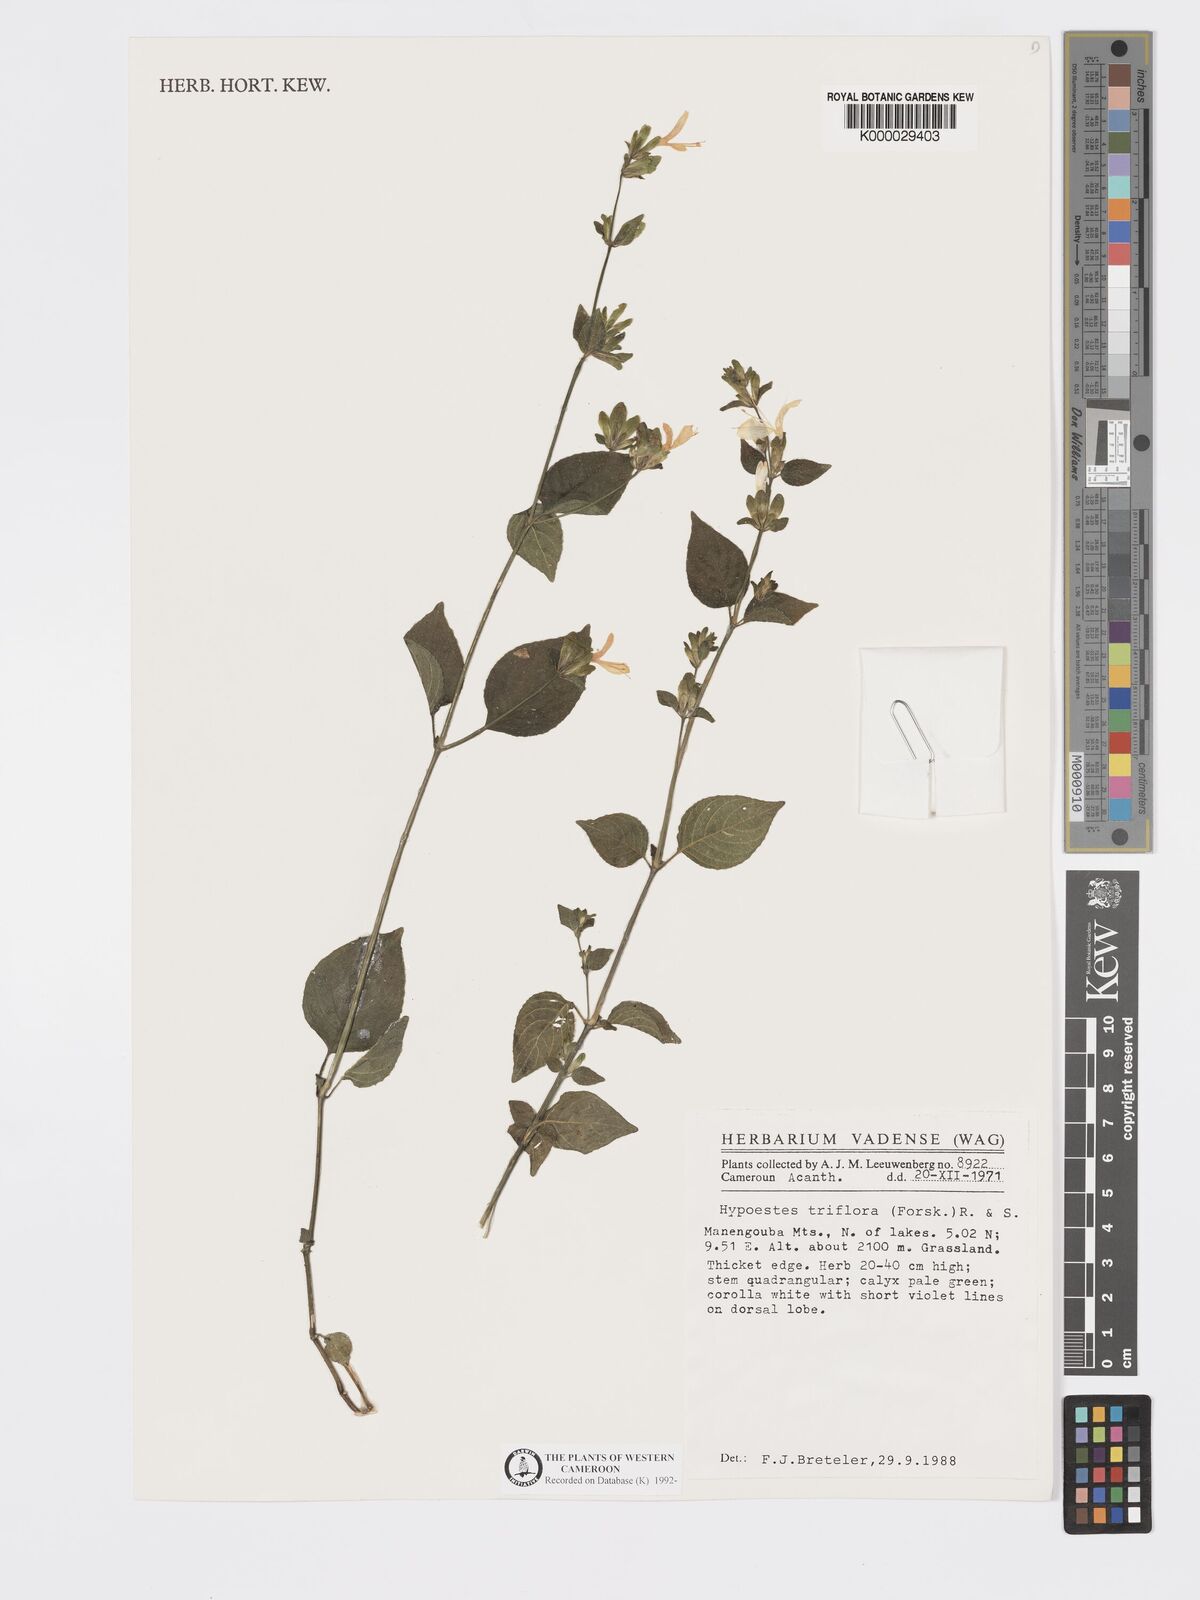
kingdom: Plantae
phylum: Tracheophyta
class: Magnoliopsida
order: Lamiales
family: Acanthaceae
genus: Hypoestes
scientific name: Hypoestes triflora
